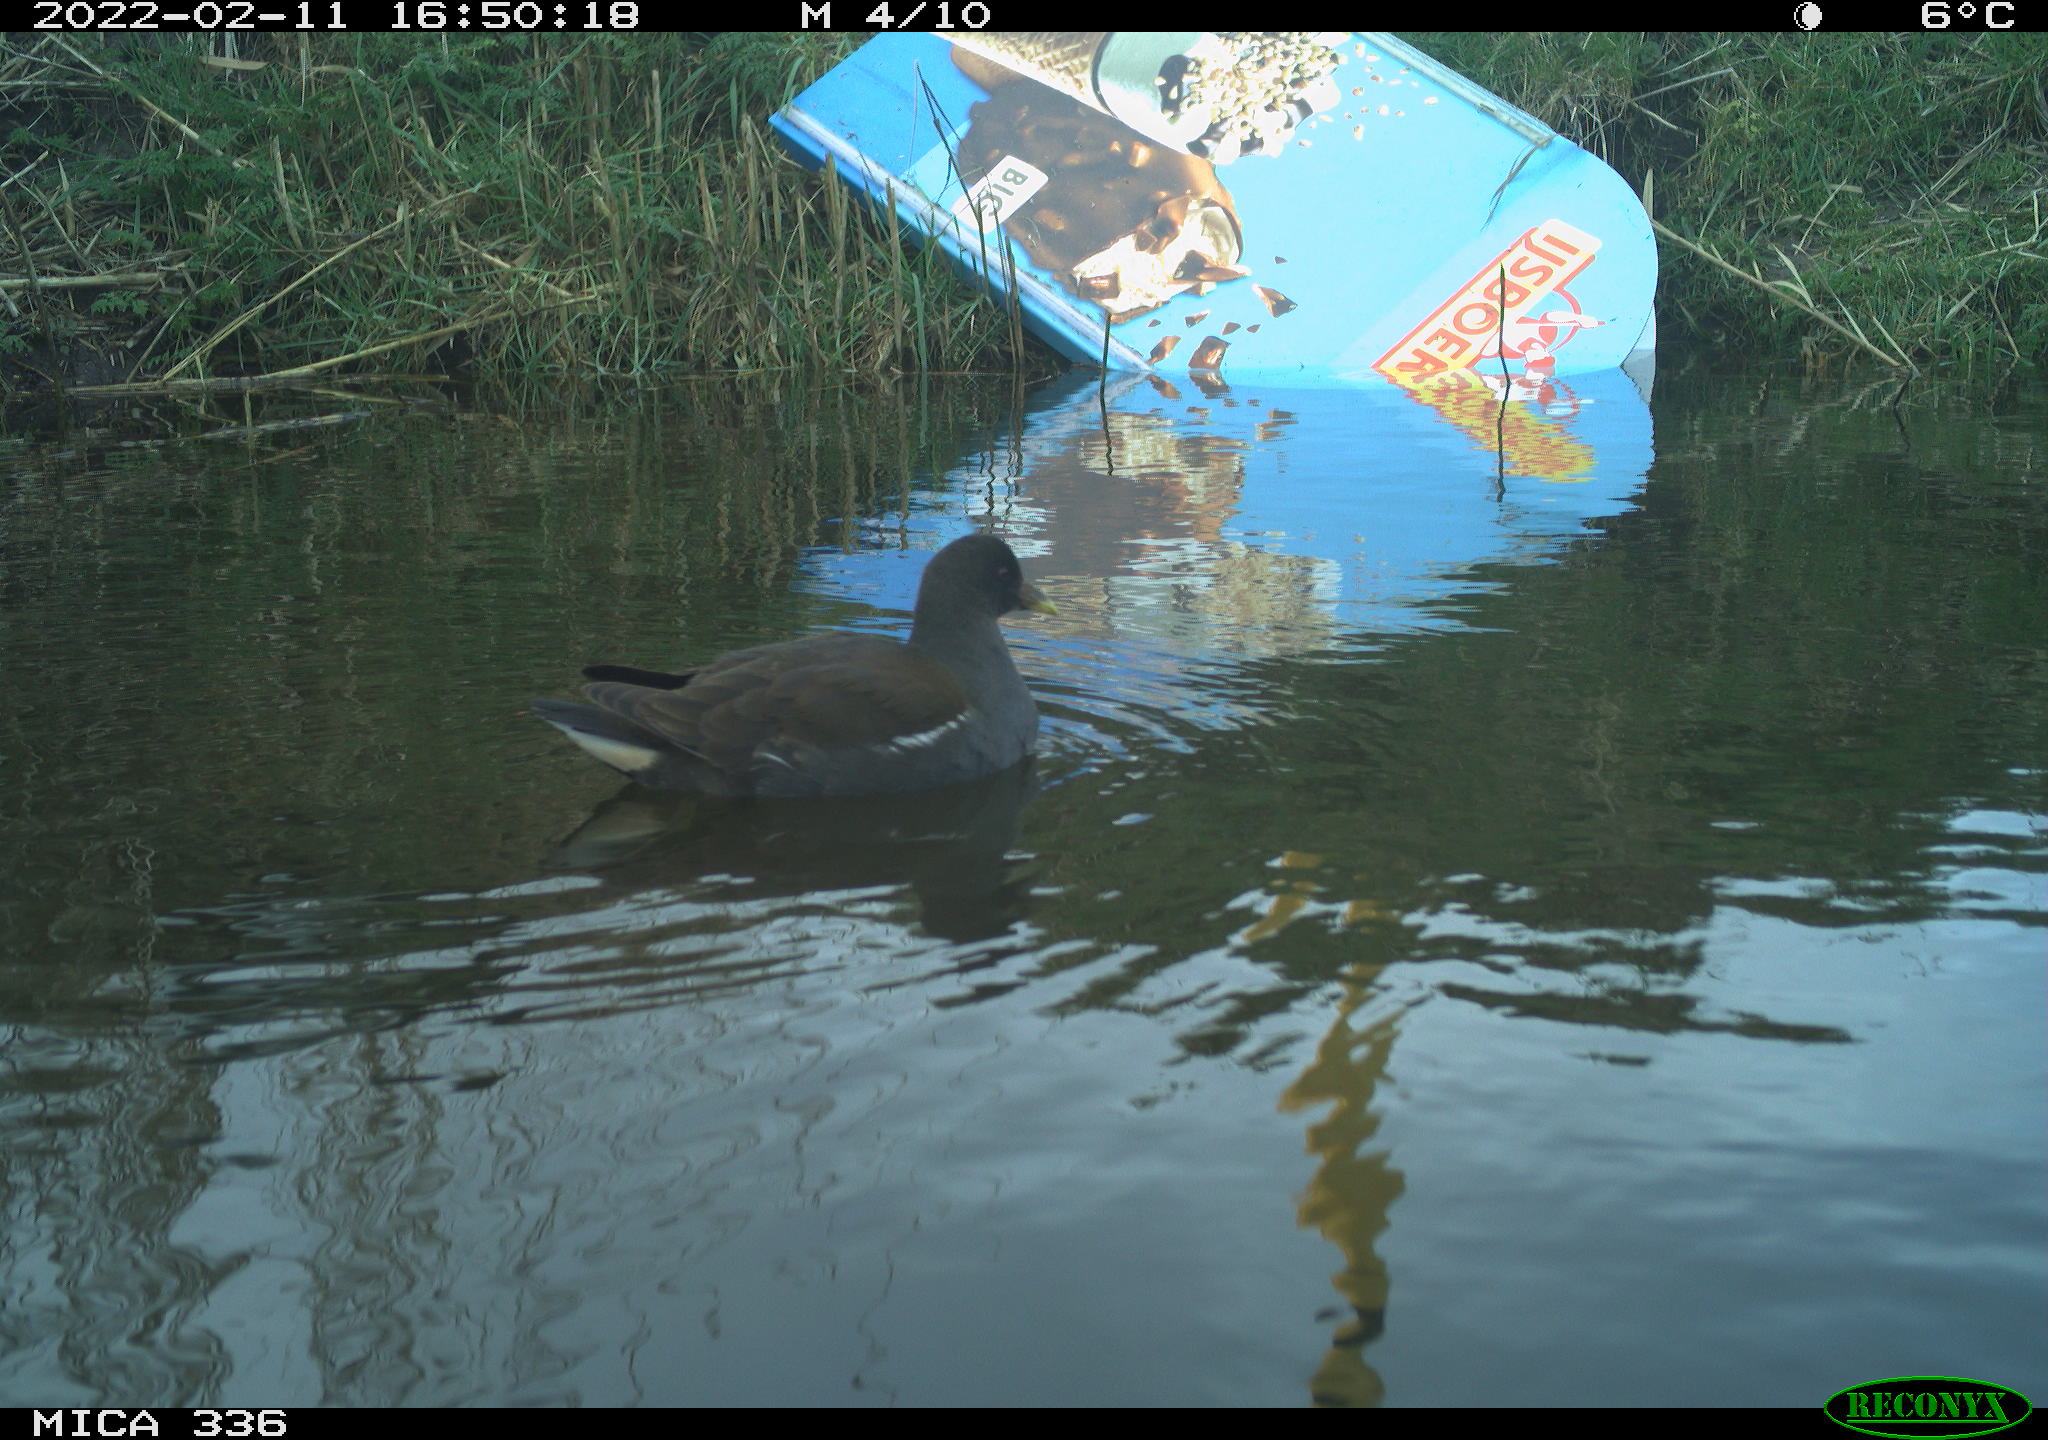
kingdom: Animalia
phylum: Chordata
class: Aves
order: Gruiformes
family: Rallidae
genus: Gallinula
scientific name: Gallinula chloropus
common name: Common moorhen
